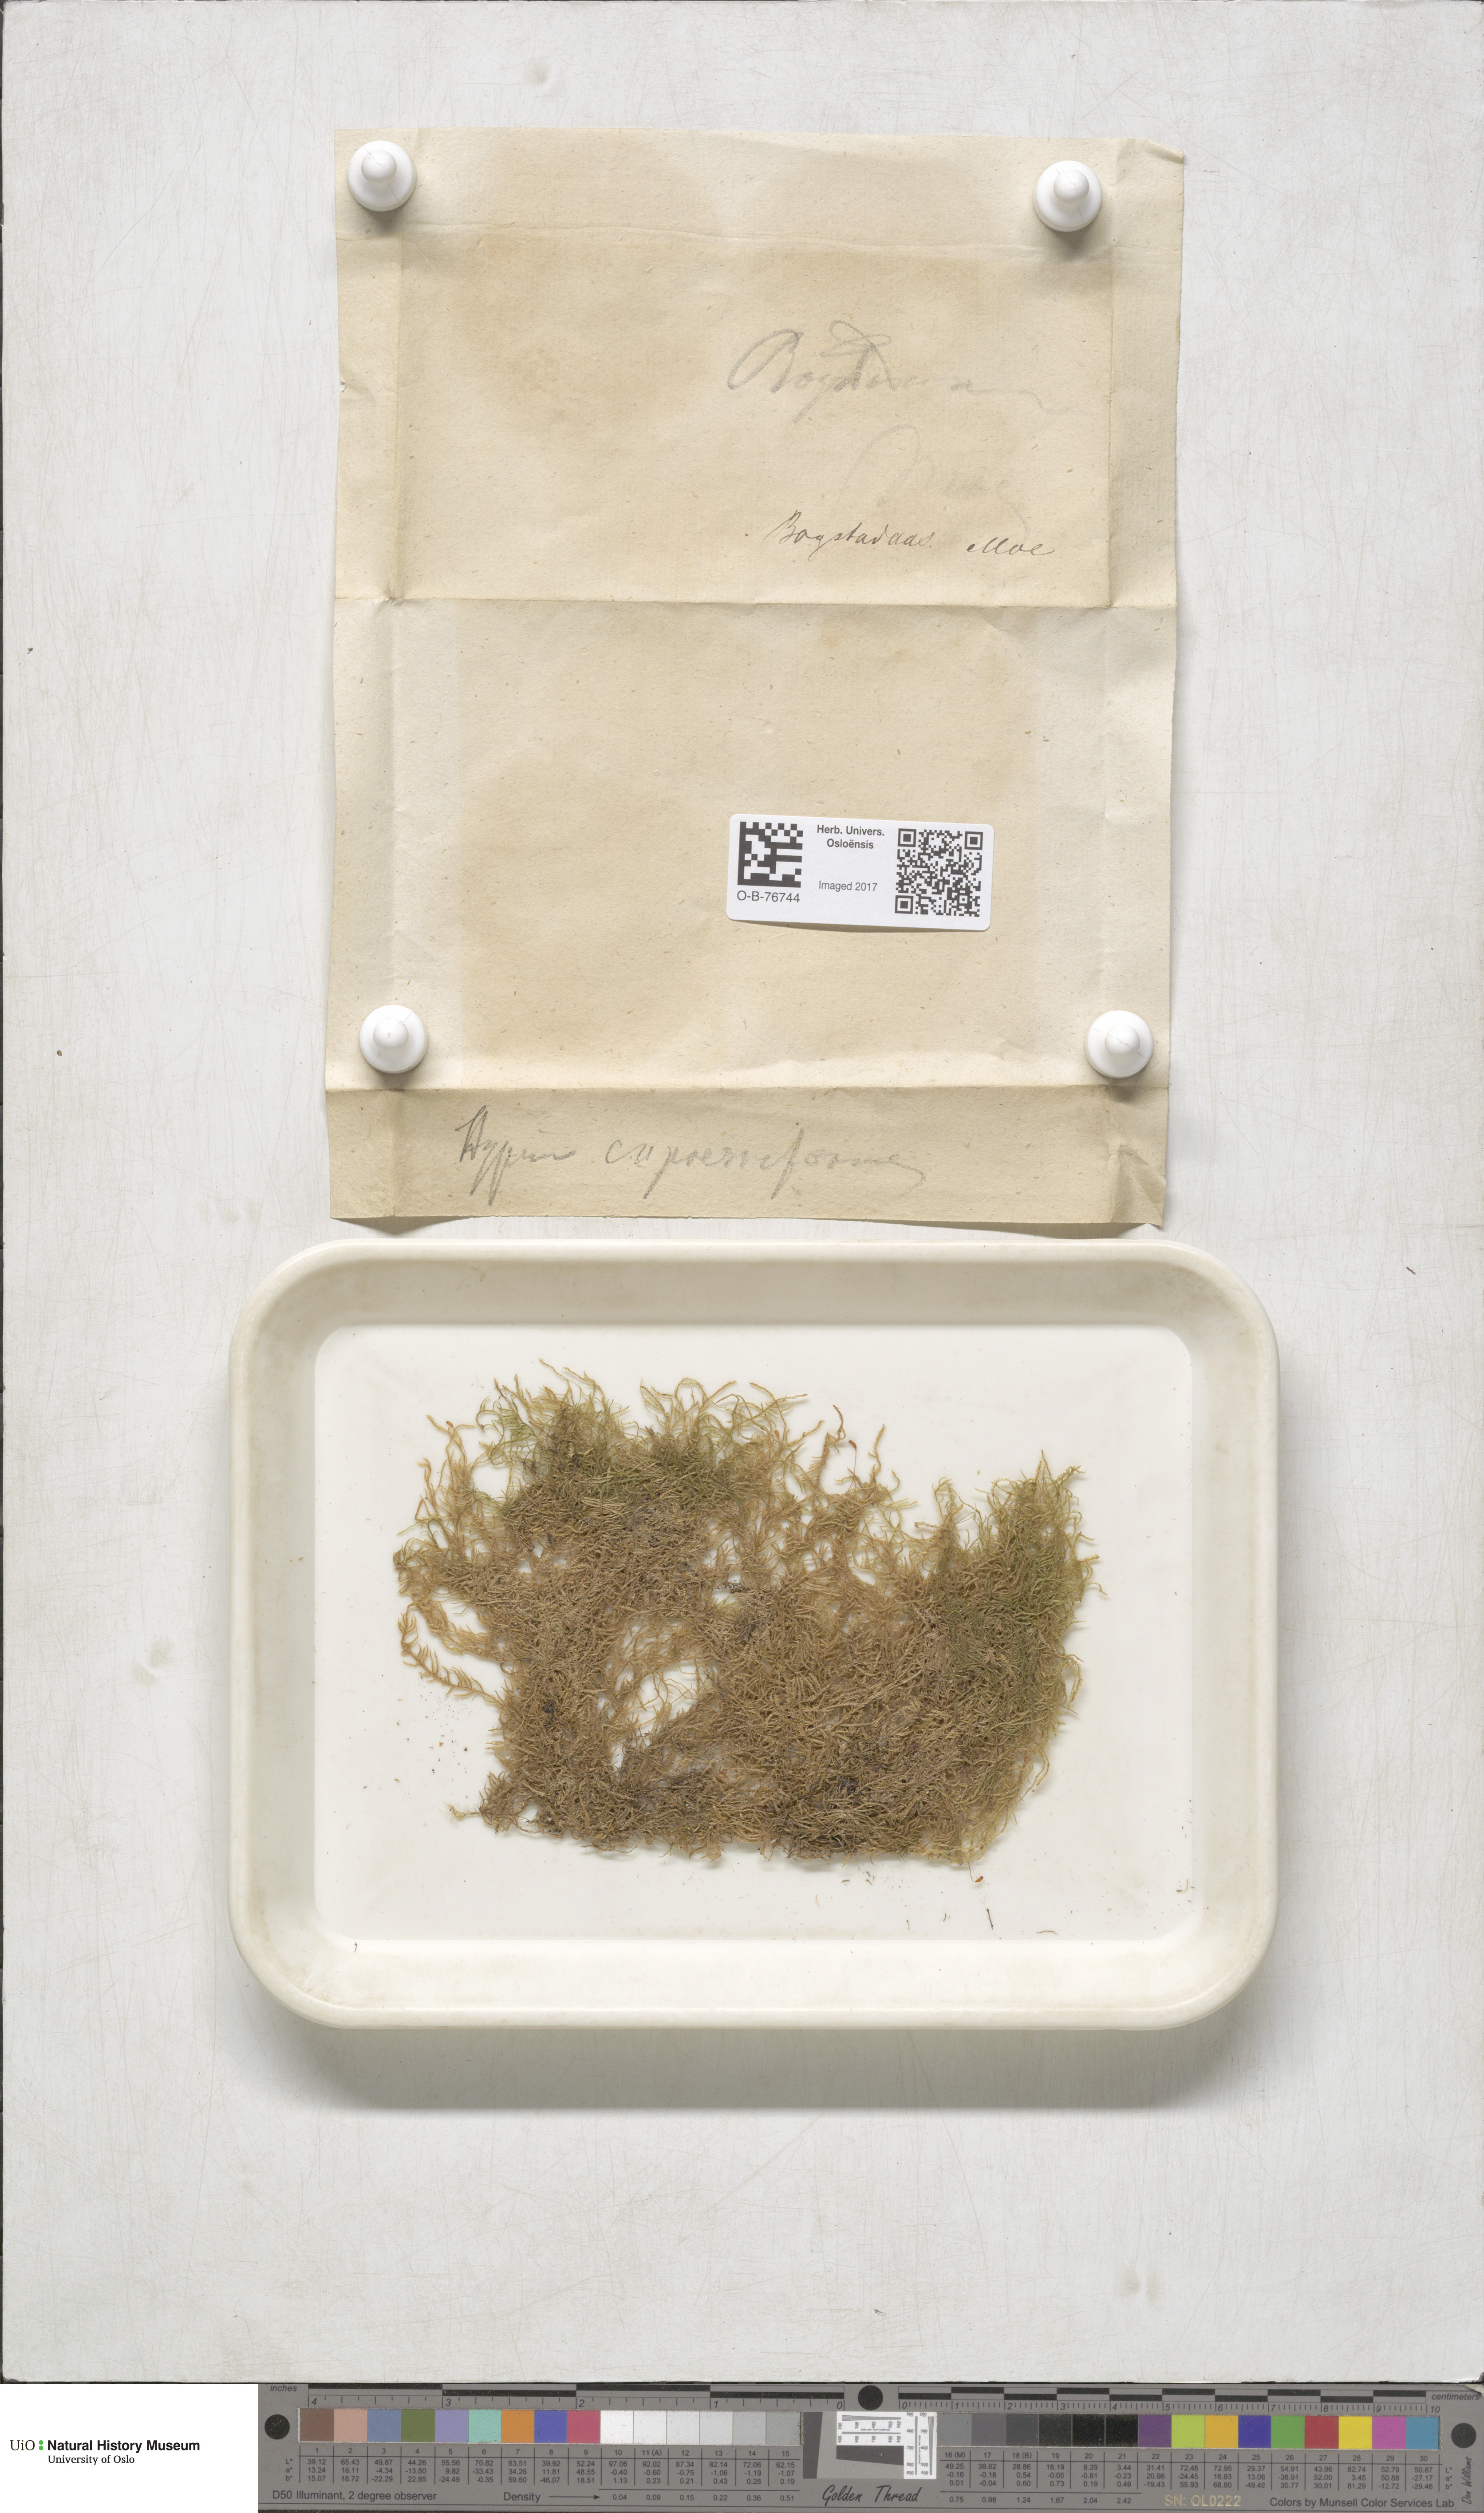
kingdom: Plantae
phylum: Bryophyta
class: Bryopsida
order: Hypnales
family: Hypnaceae
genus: Hypnum
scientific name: Hypnum cupressiforme
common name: Cypress-leaved plait-moss
